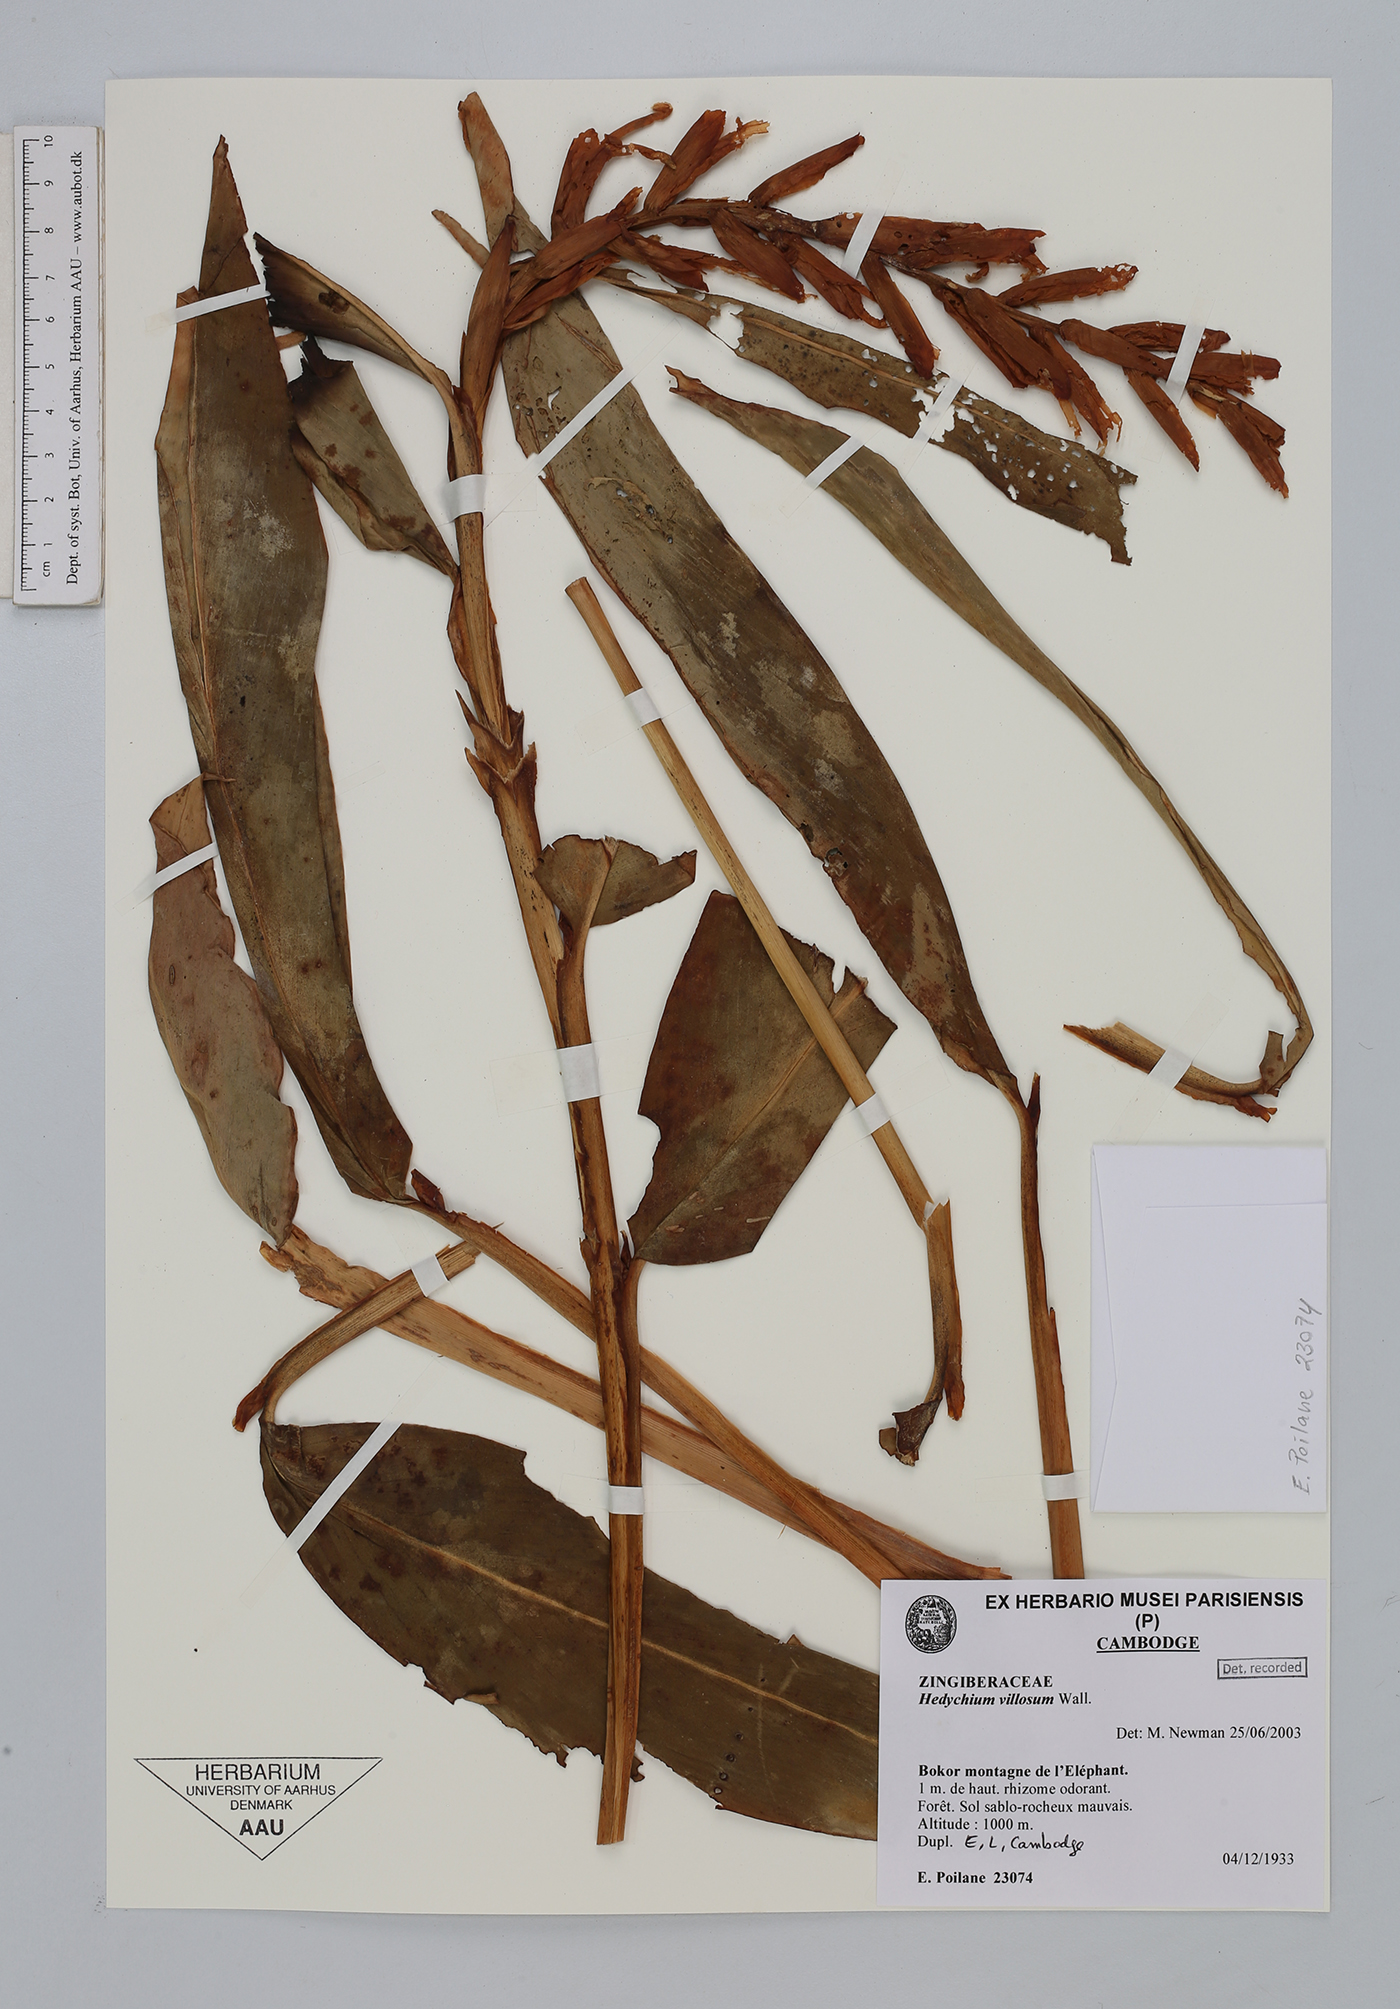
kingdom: Plantae
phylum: Tracheophyta
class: Liliopsida
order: Zingiberales
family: Zingiberaceae
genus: Hedychium
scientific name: Hedychium villosum
